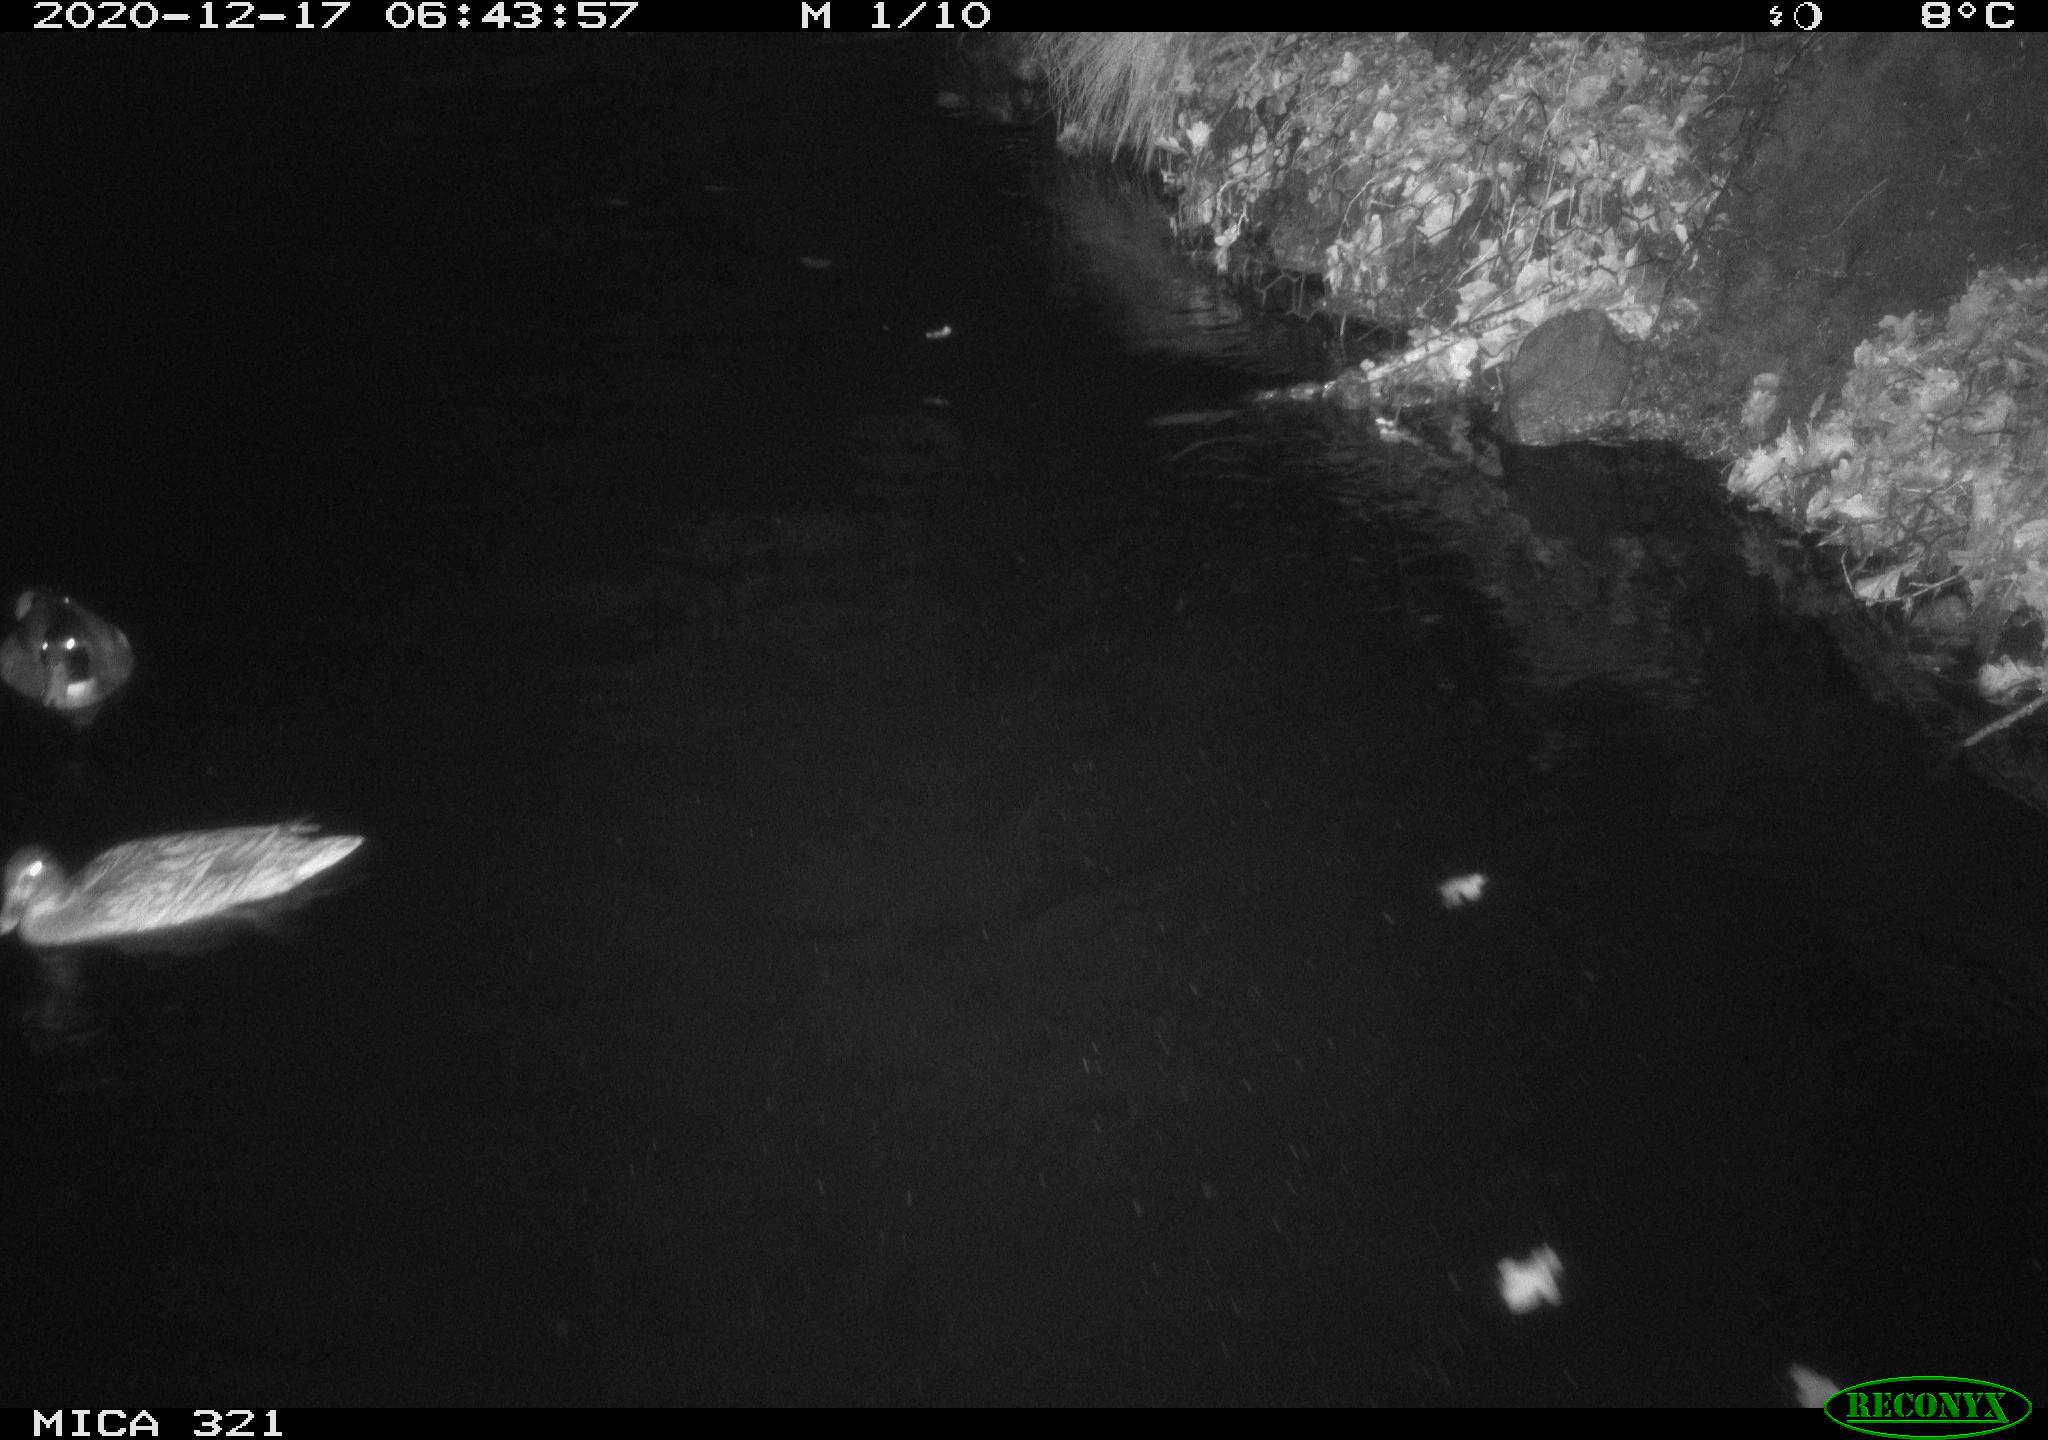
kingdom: Animalia
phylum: Chordata
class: Aves
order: Anseriformes
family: Anatidae
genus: Anas
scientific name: Anas platyrhynchos
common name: Mallard
